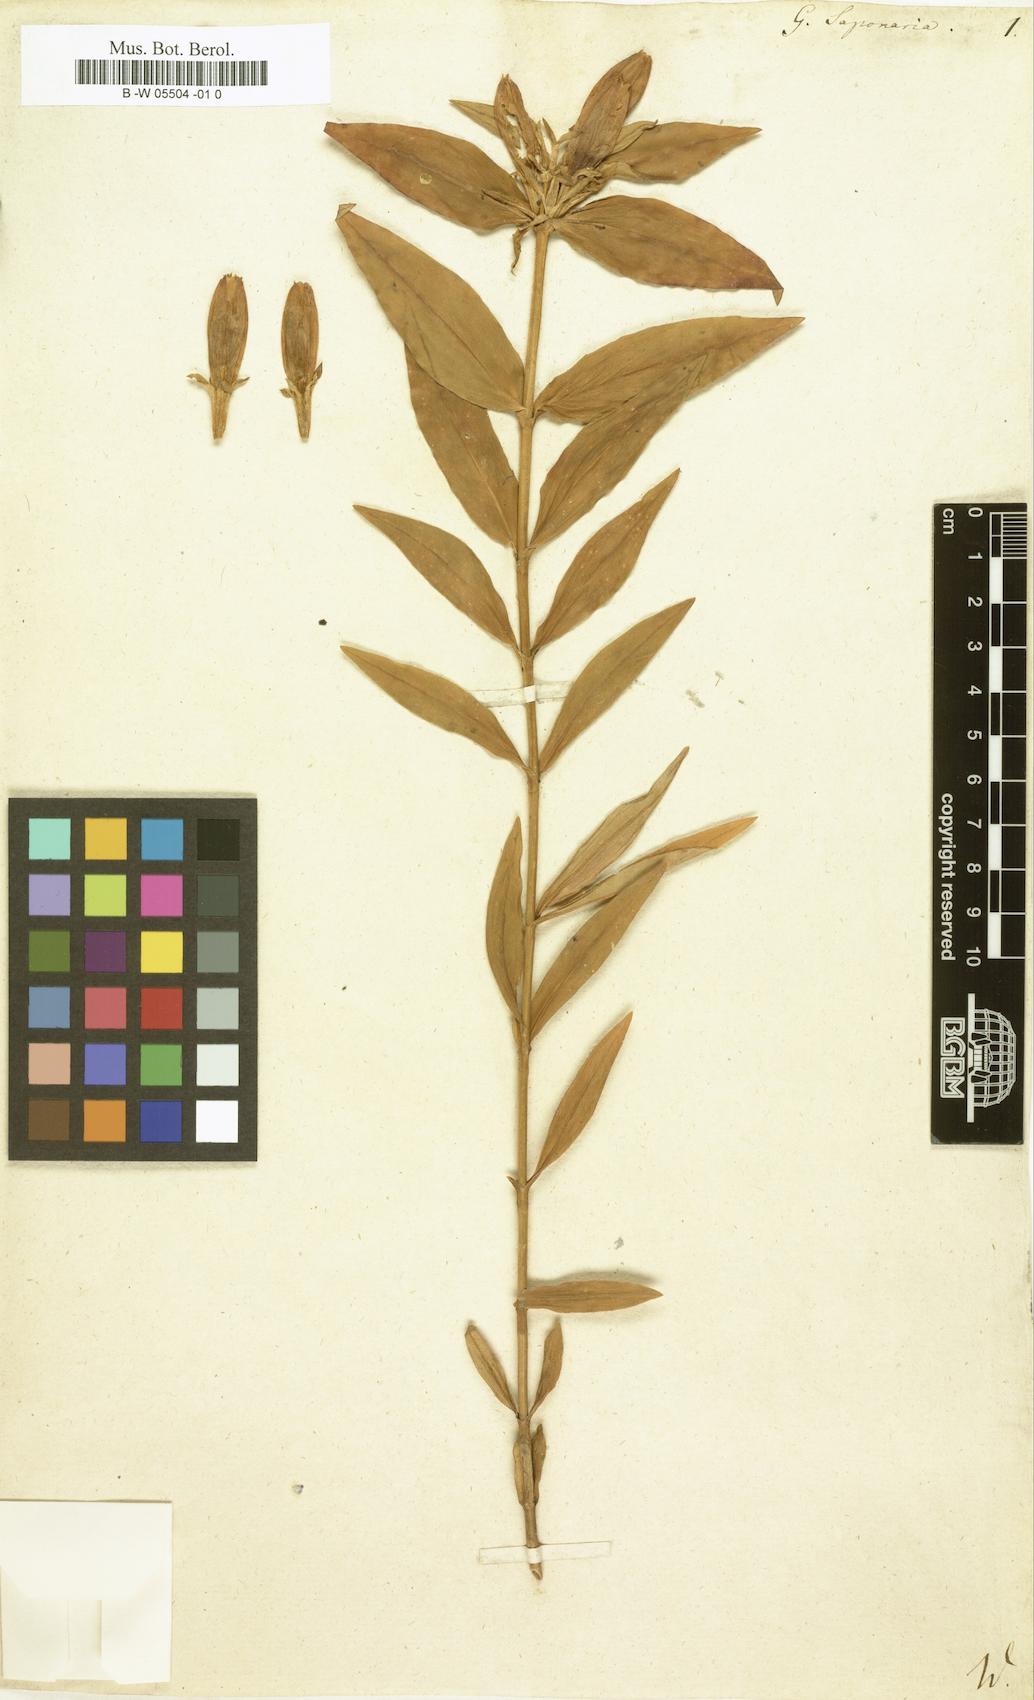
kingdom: Plantae
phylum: Tracheophyta
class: Magnoliopsida
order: Gentianales
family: Gentianaceae
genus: Gentiana
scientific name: Gentiana saponaria
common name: Soapwort gentian
